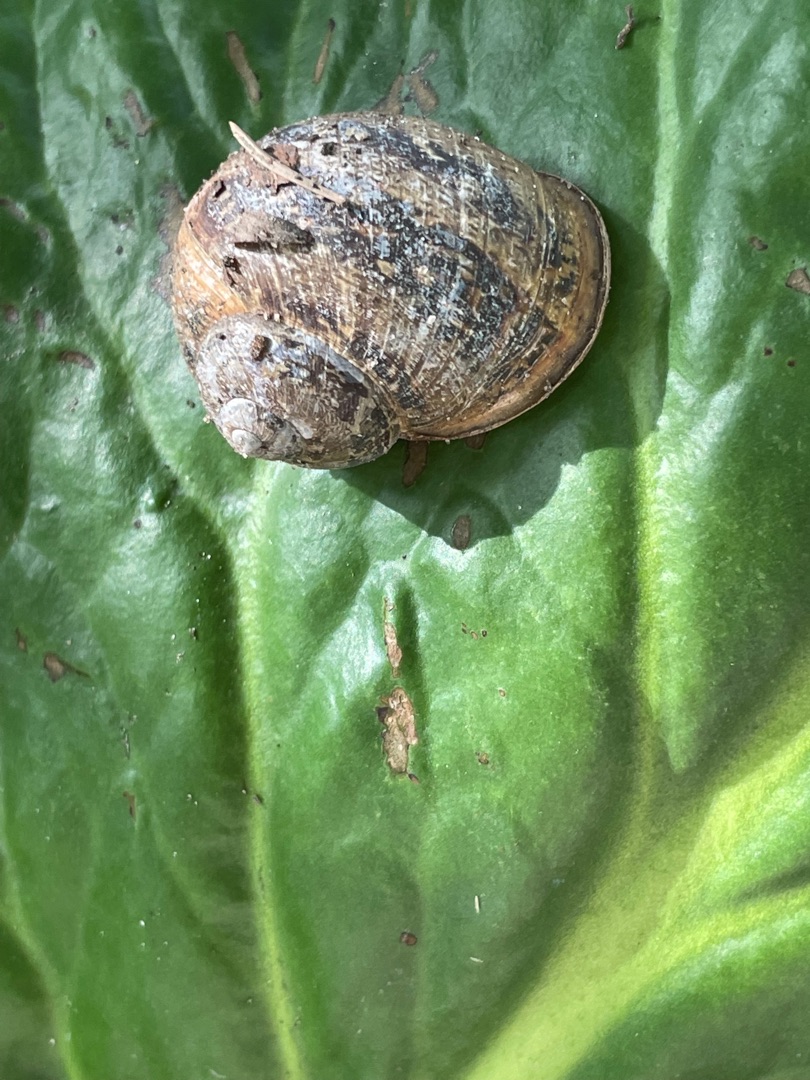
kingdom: Animalia
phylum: Mollusca
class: Gastropoda
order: Stylommatophora
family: Helicidae
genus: Cornu
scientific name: Cornu aspersum
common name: Plettet voldsnegl
